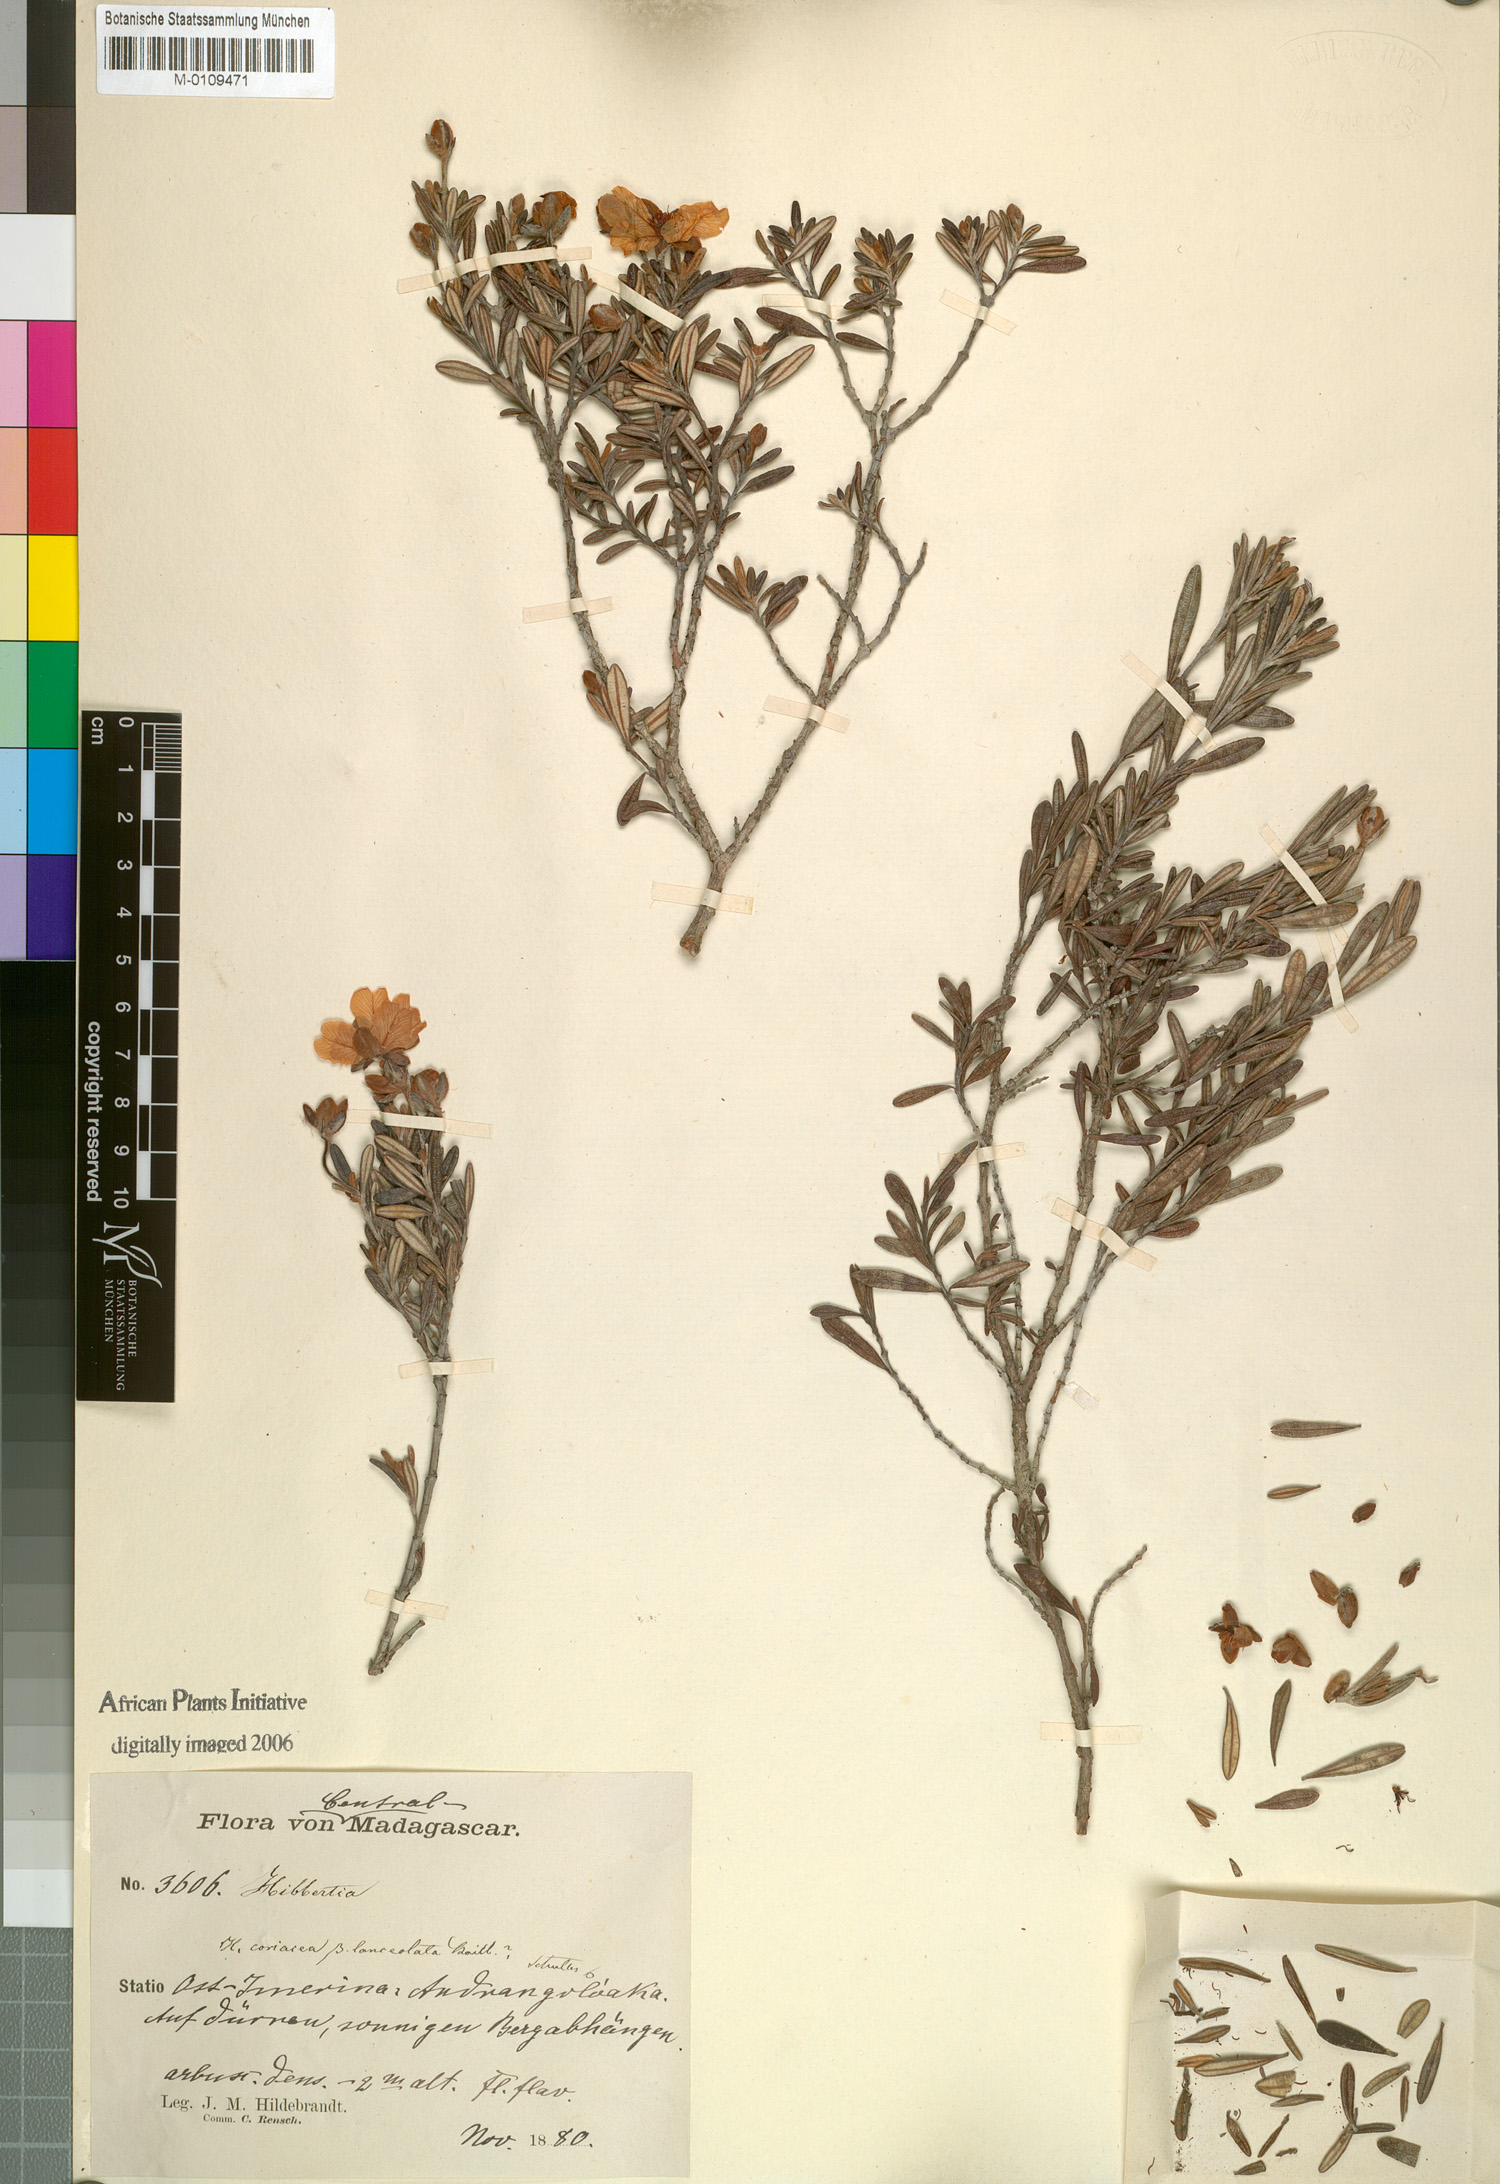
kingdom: Plantae
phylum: Tracheophyta
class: Magnoliopsida
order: Dilleniales
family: Dilleniaceae
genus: Hibbertia
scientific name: Hibbertia coriacea
